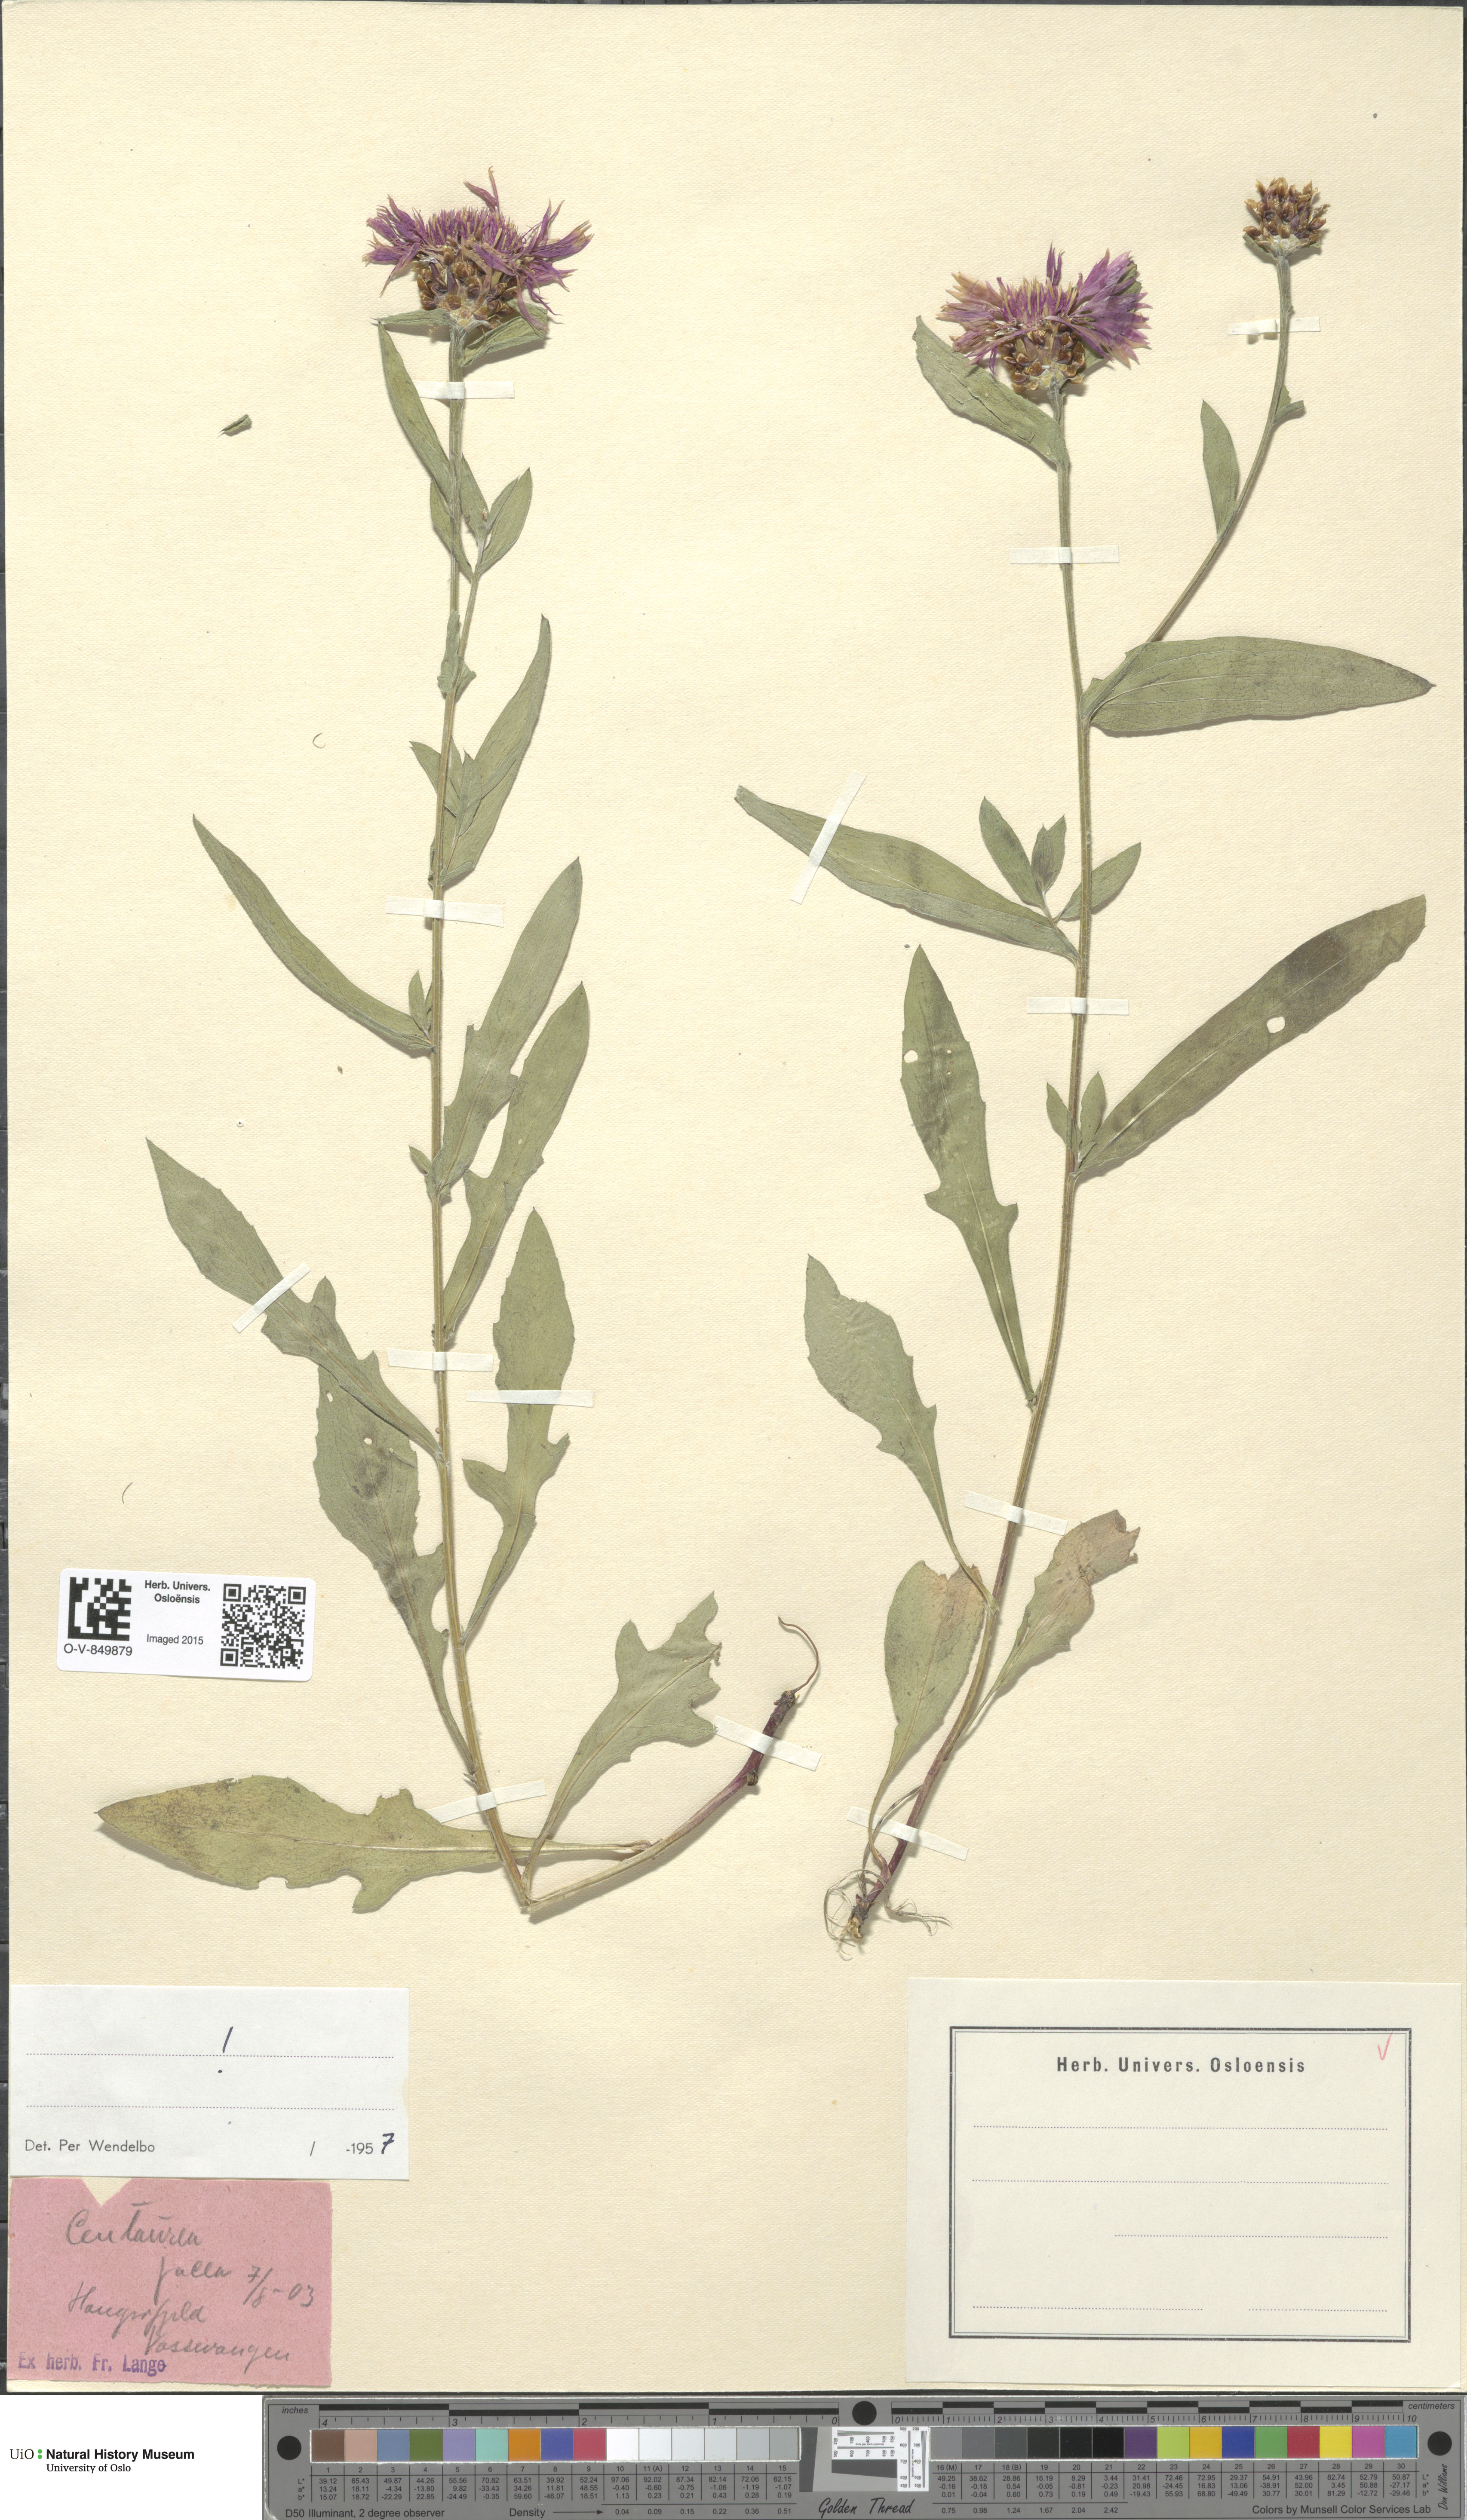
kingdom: Plantae
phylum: Tracheophyta
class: Magnoliopsida
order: Asterales
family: Asteraceae
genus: Centaurea
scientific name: Centaurea jacea
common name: Brown knapweed
